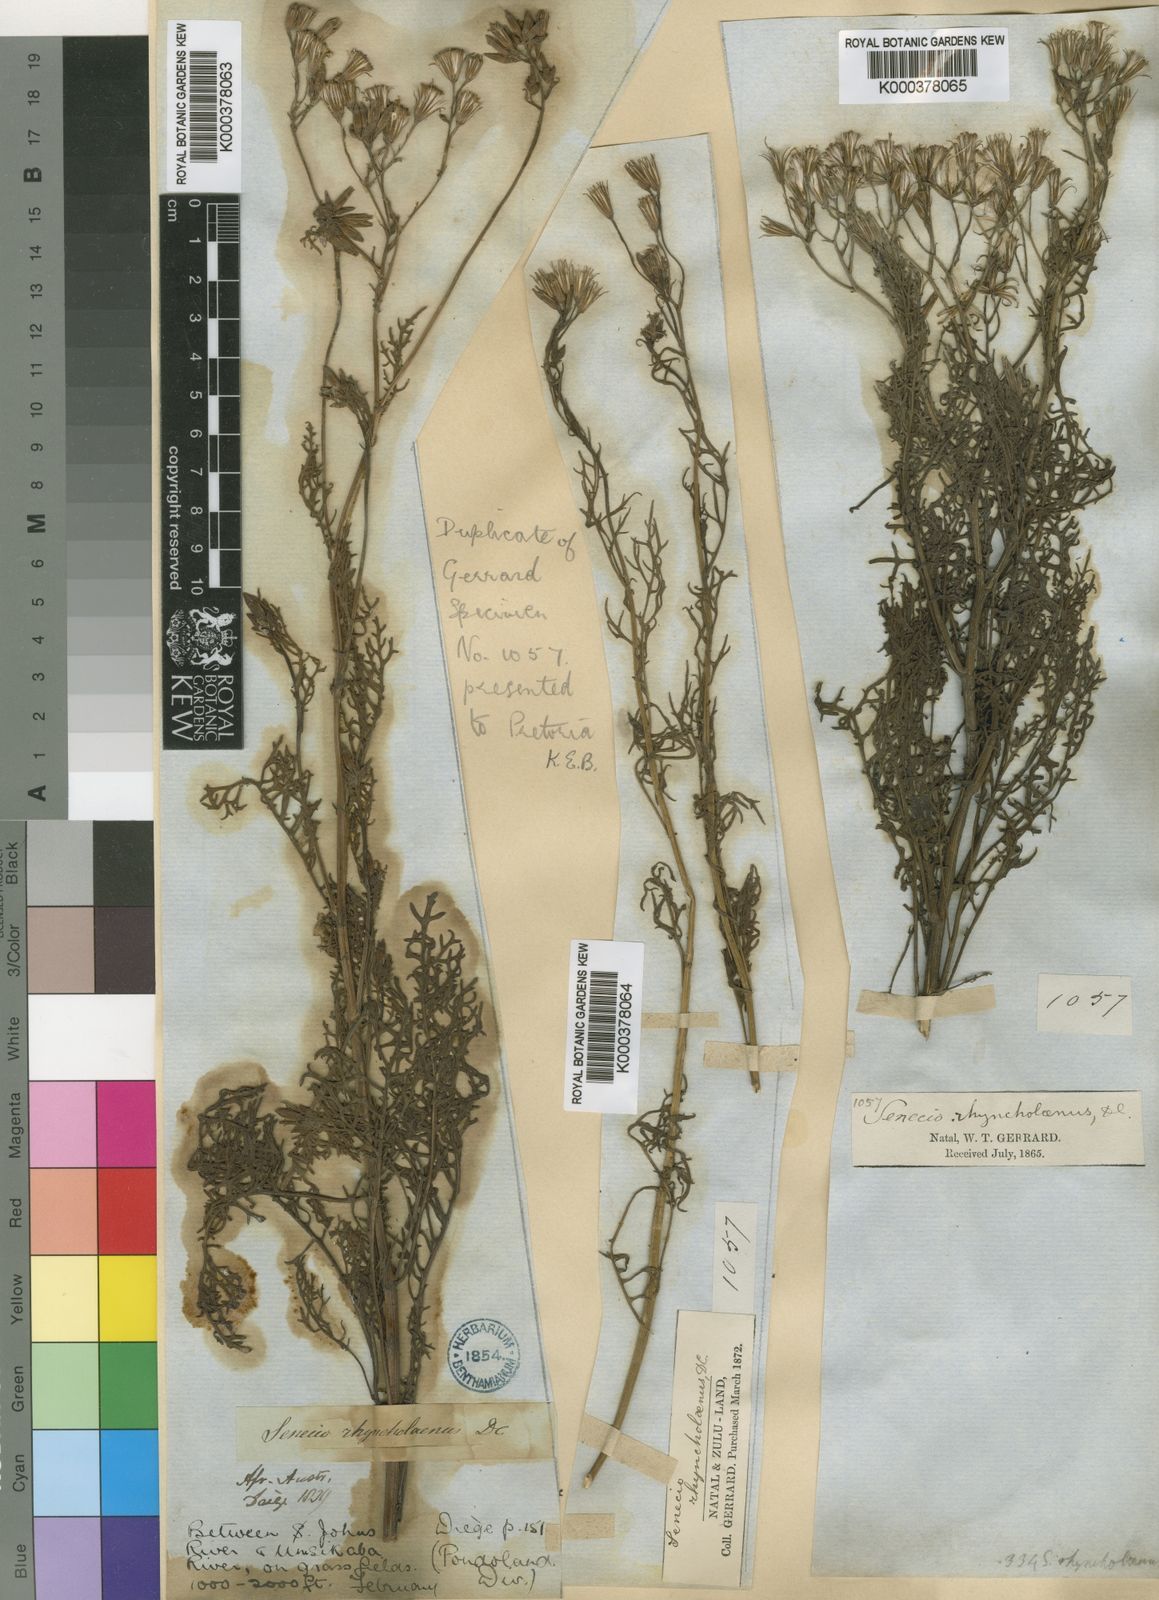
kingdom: Plantae
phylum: Tracheophyta
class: Magnoliopsida
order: Asterales
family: Asteraceae
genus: Senecio
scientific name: Senecio rhyncholaenus
